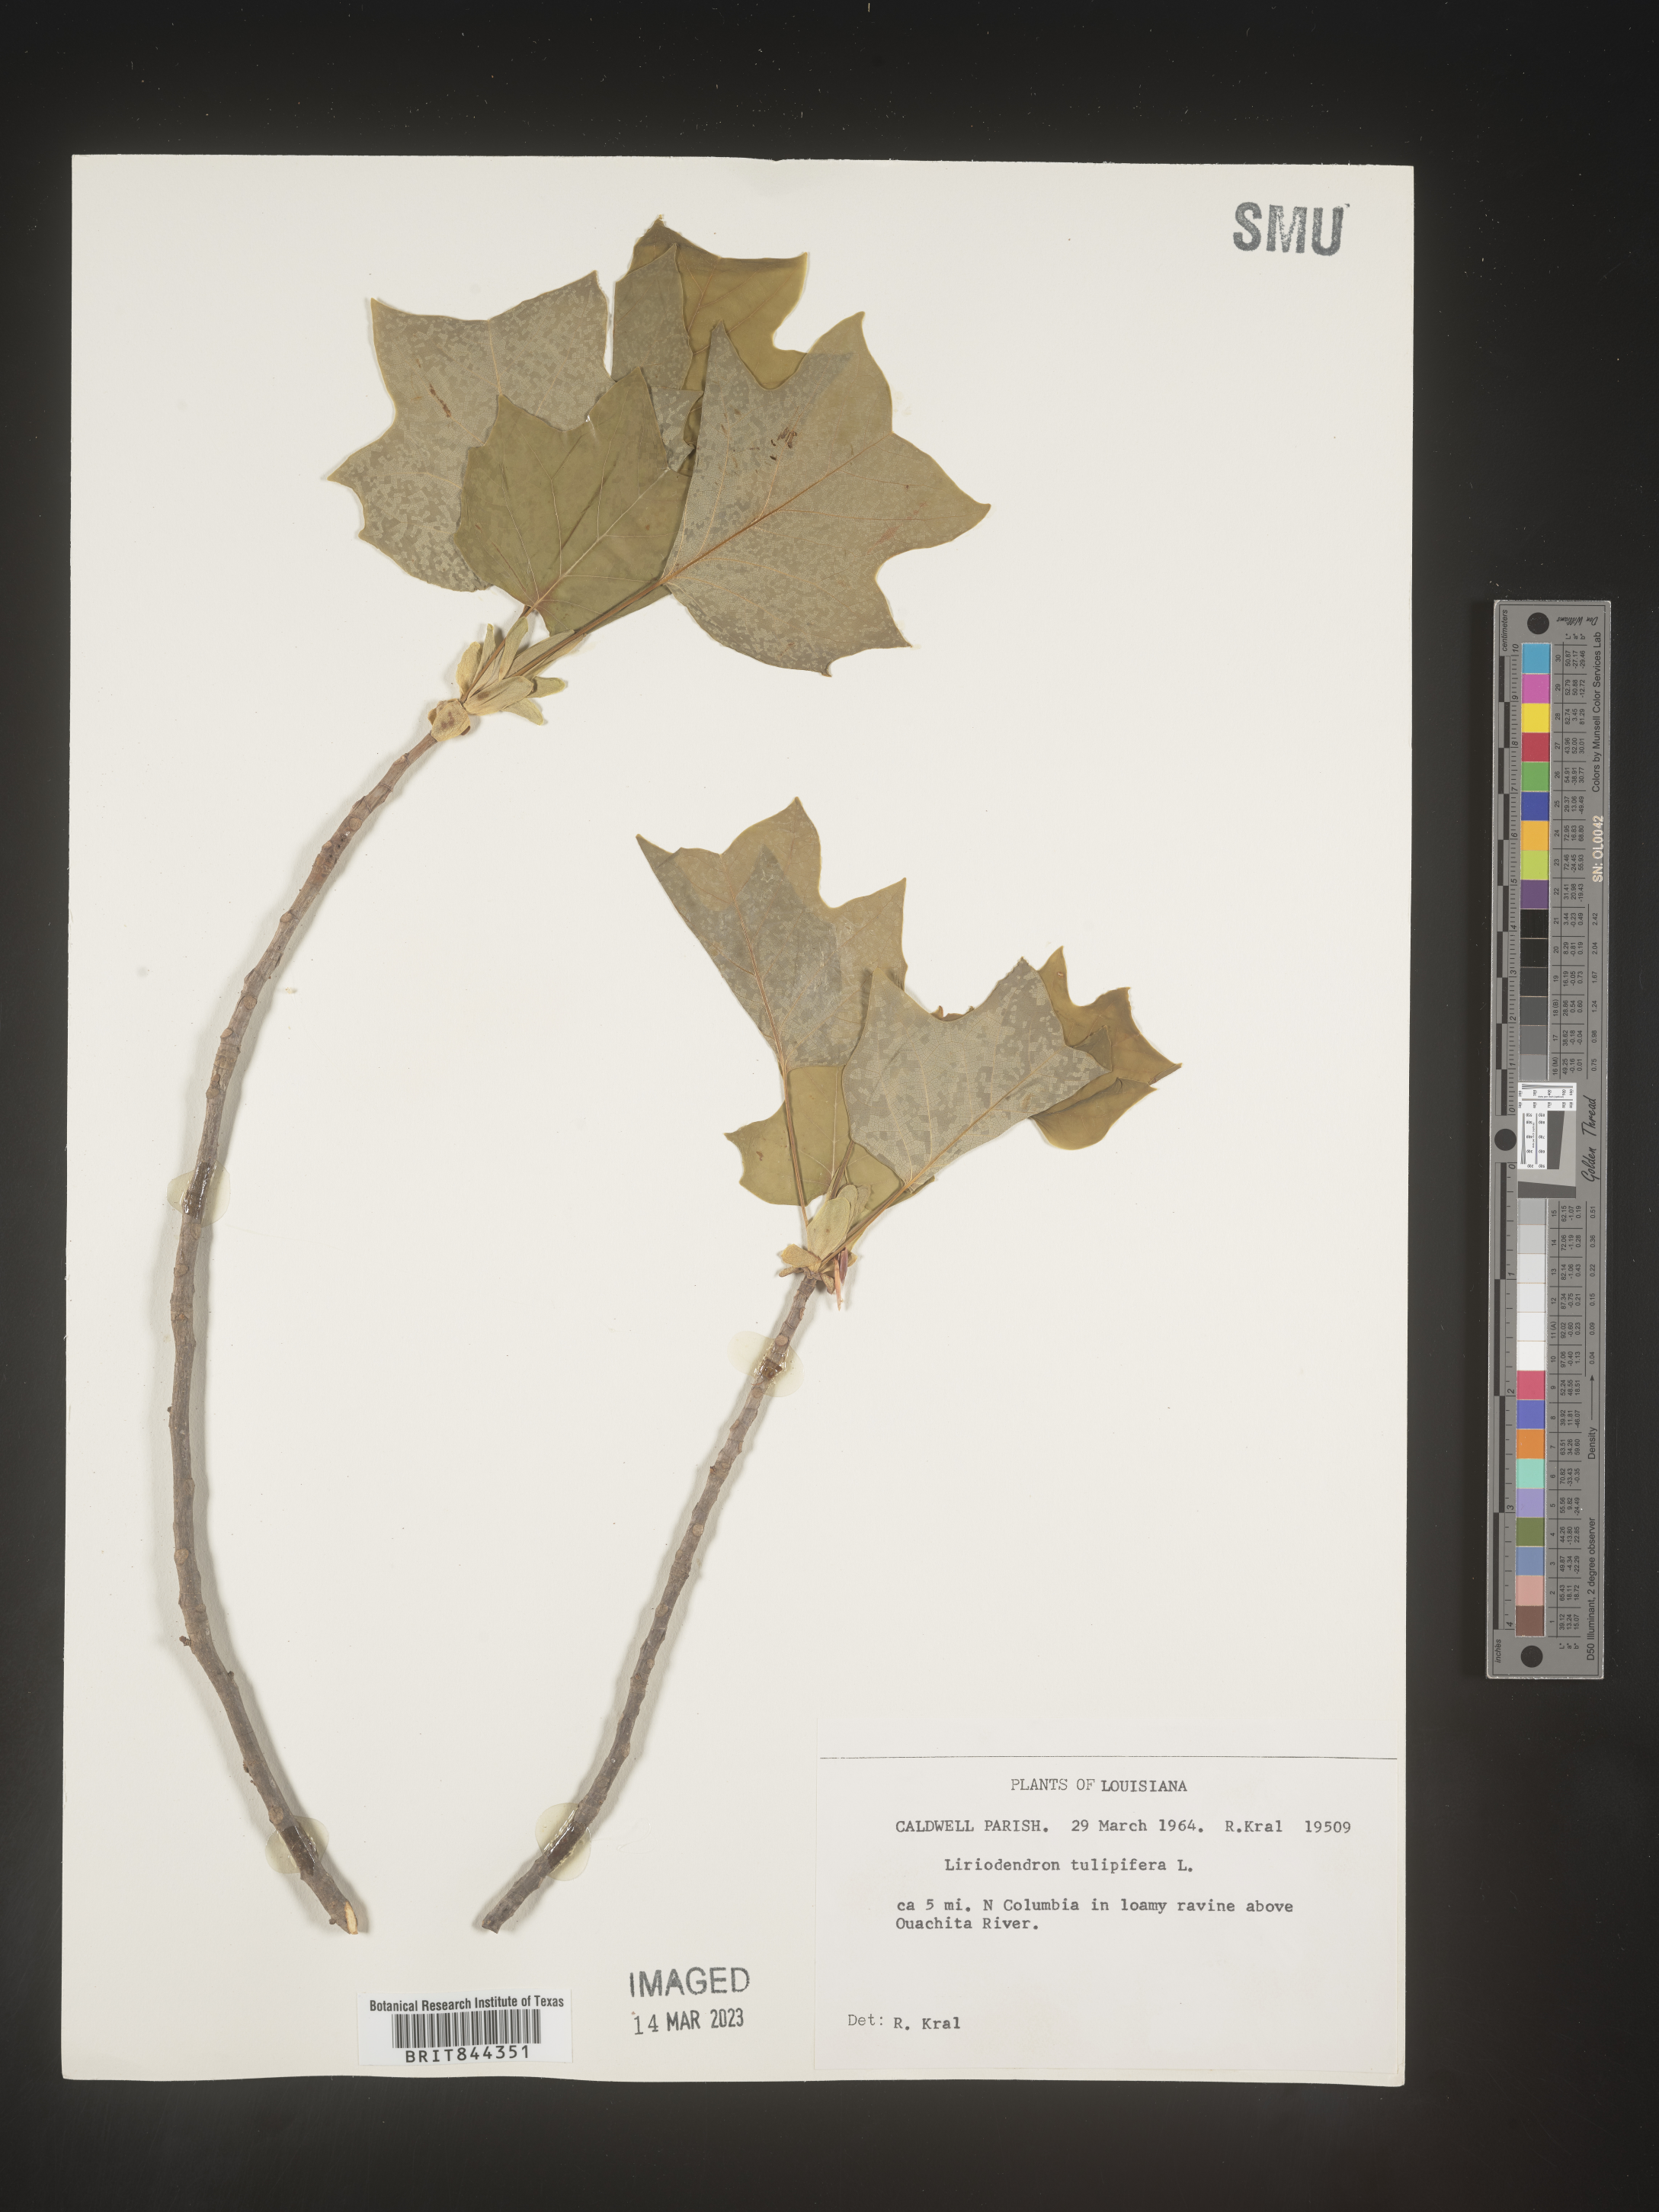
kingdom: Plantae
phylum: Tracheophyta
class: Magnoliopsida
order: Magnoliales
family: Magnoliaceae
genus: Liriodendron
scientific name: Liriodendron tulipifera
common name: Tulip tree
